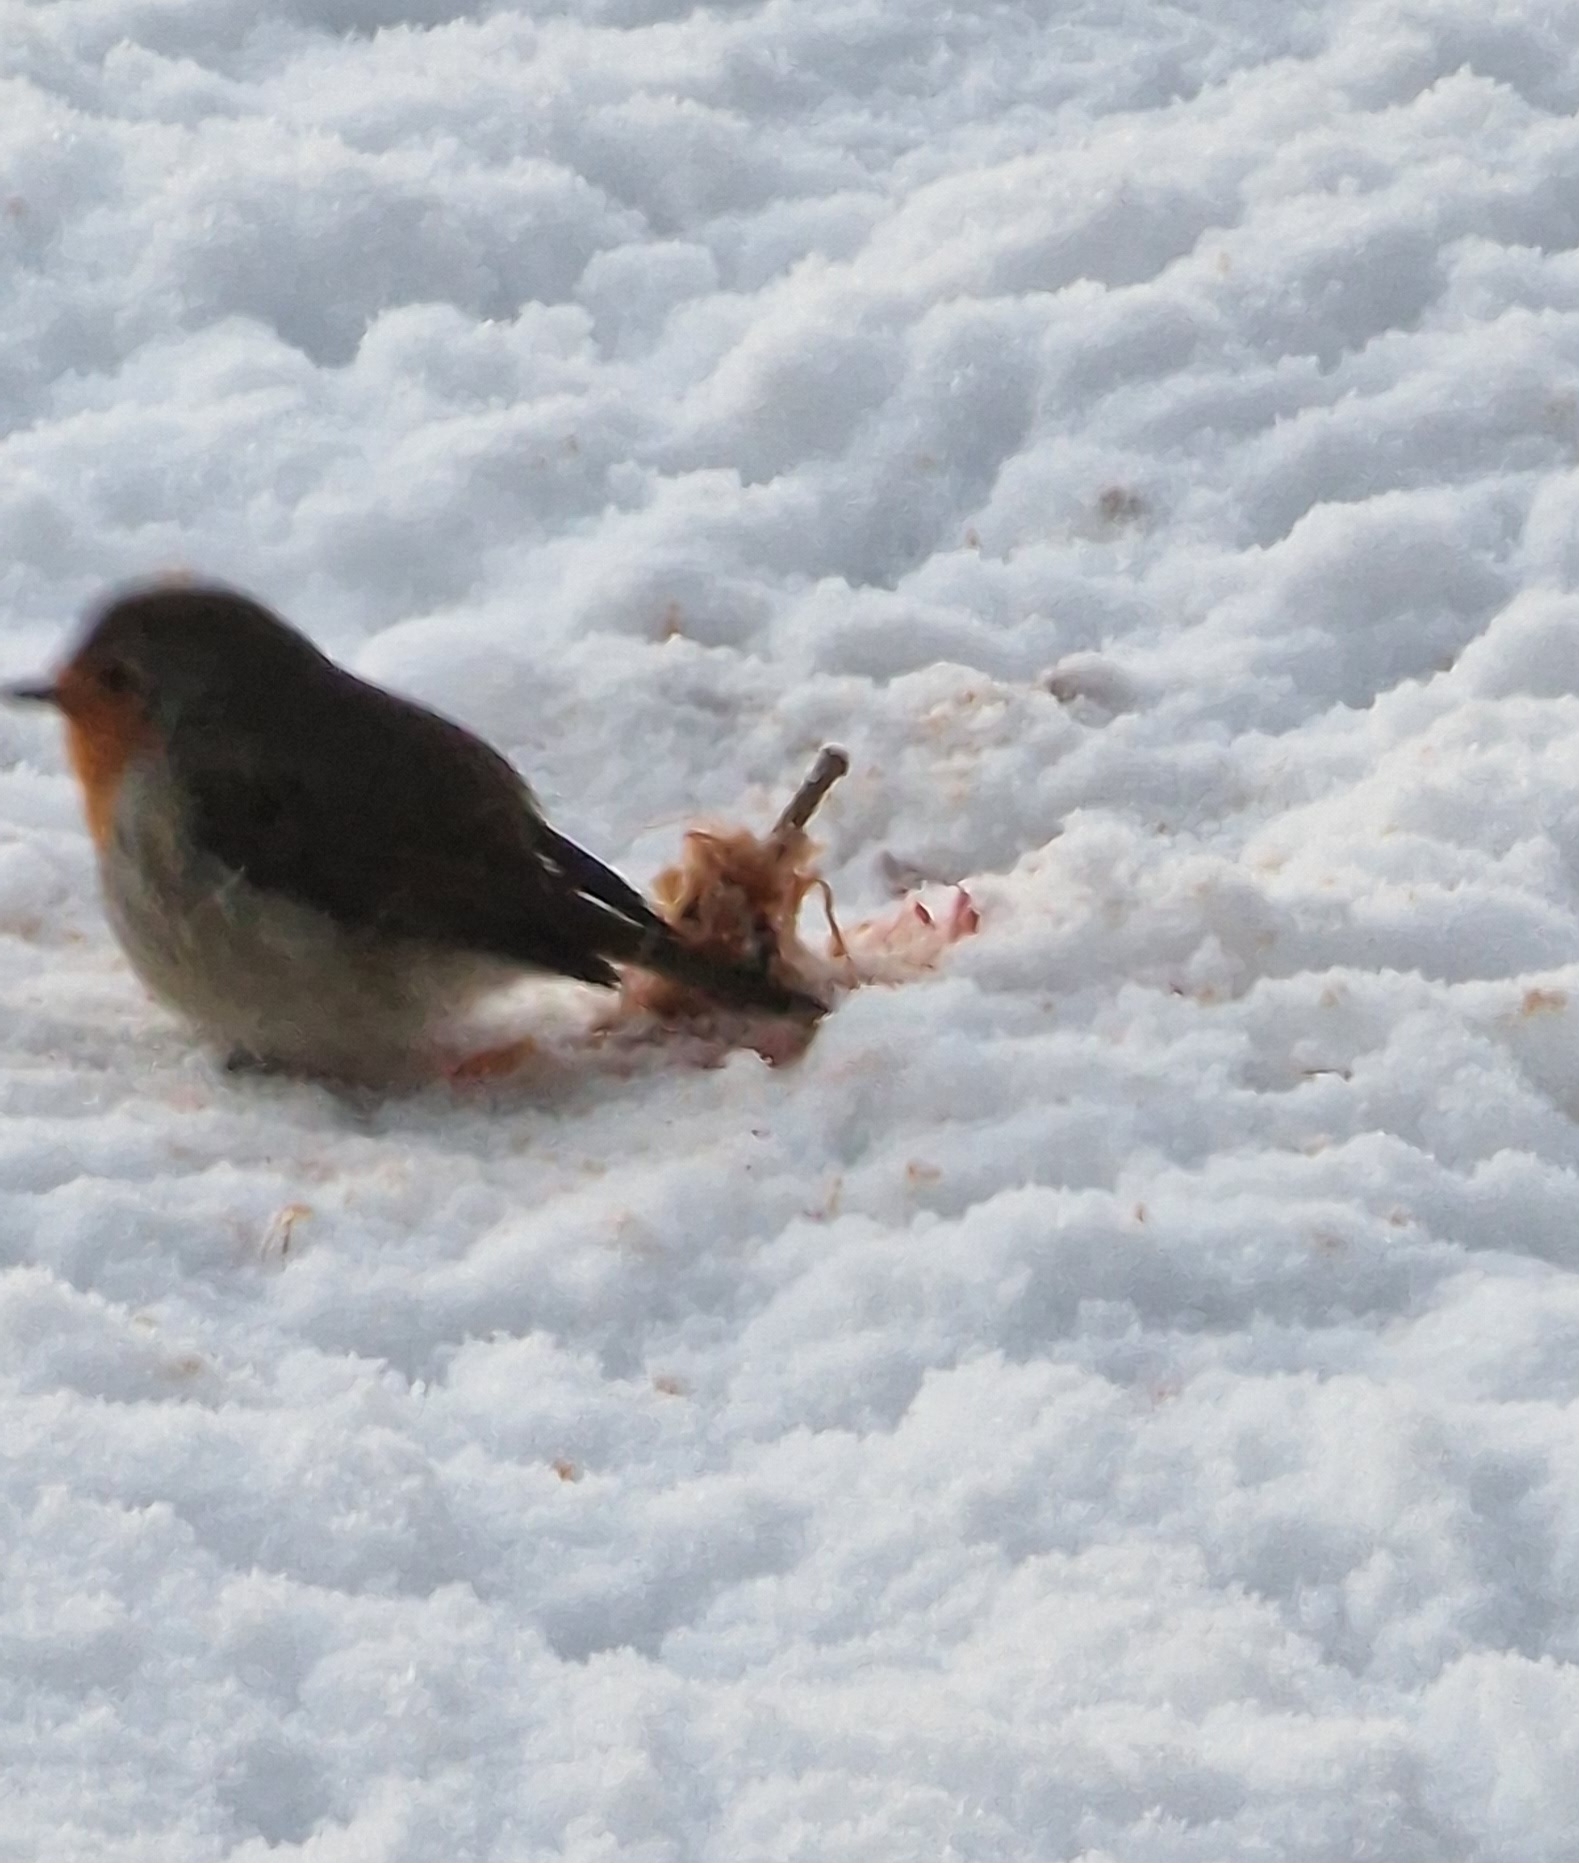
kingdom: Animalia
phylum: Chordata
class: Aves
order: Passeriformes
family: Muscicapidae
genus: Erithacus
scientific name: Erithacus rubecula
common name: Rødhals/rødkælk
